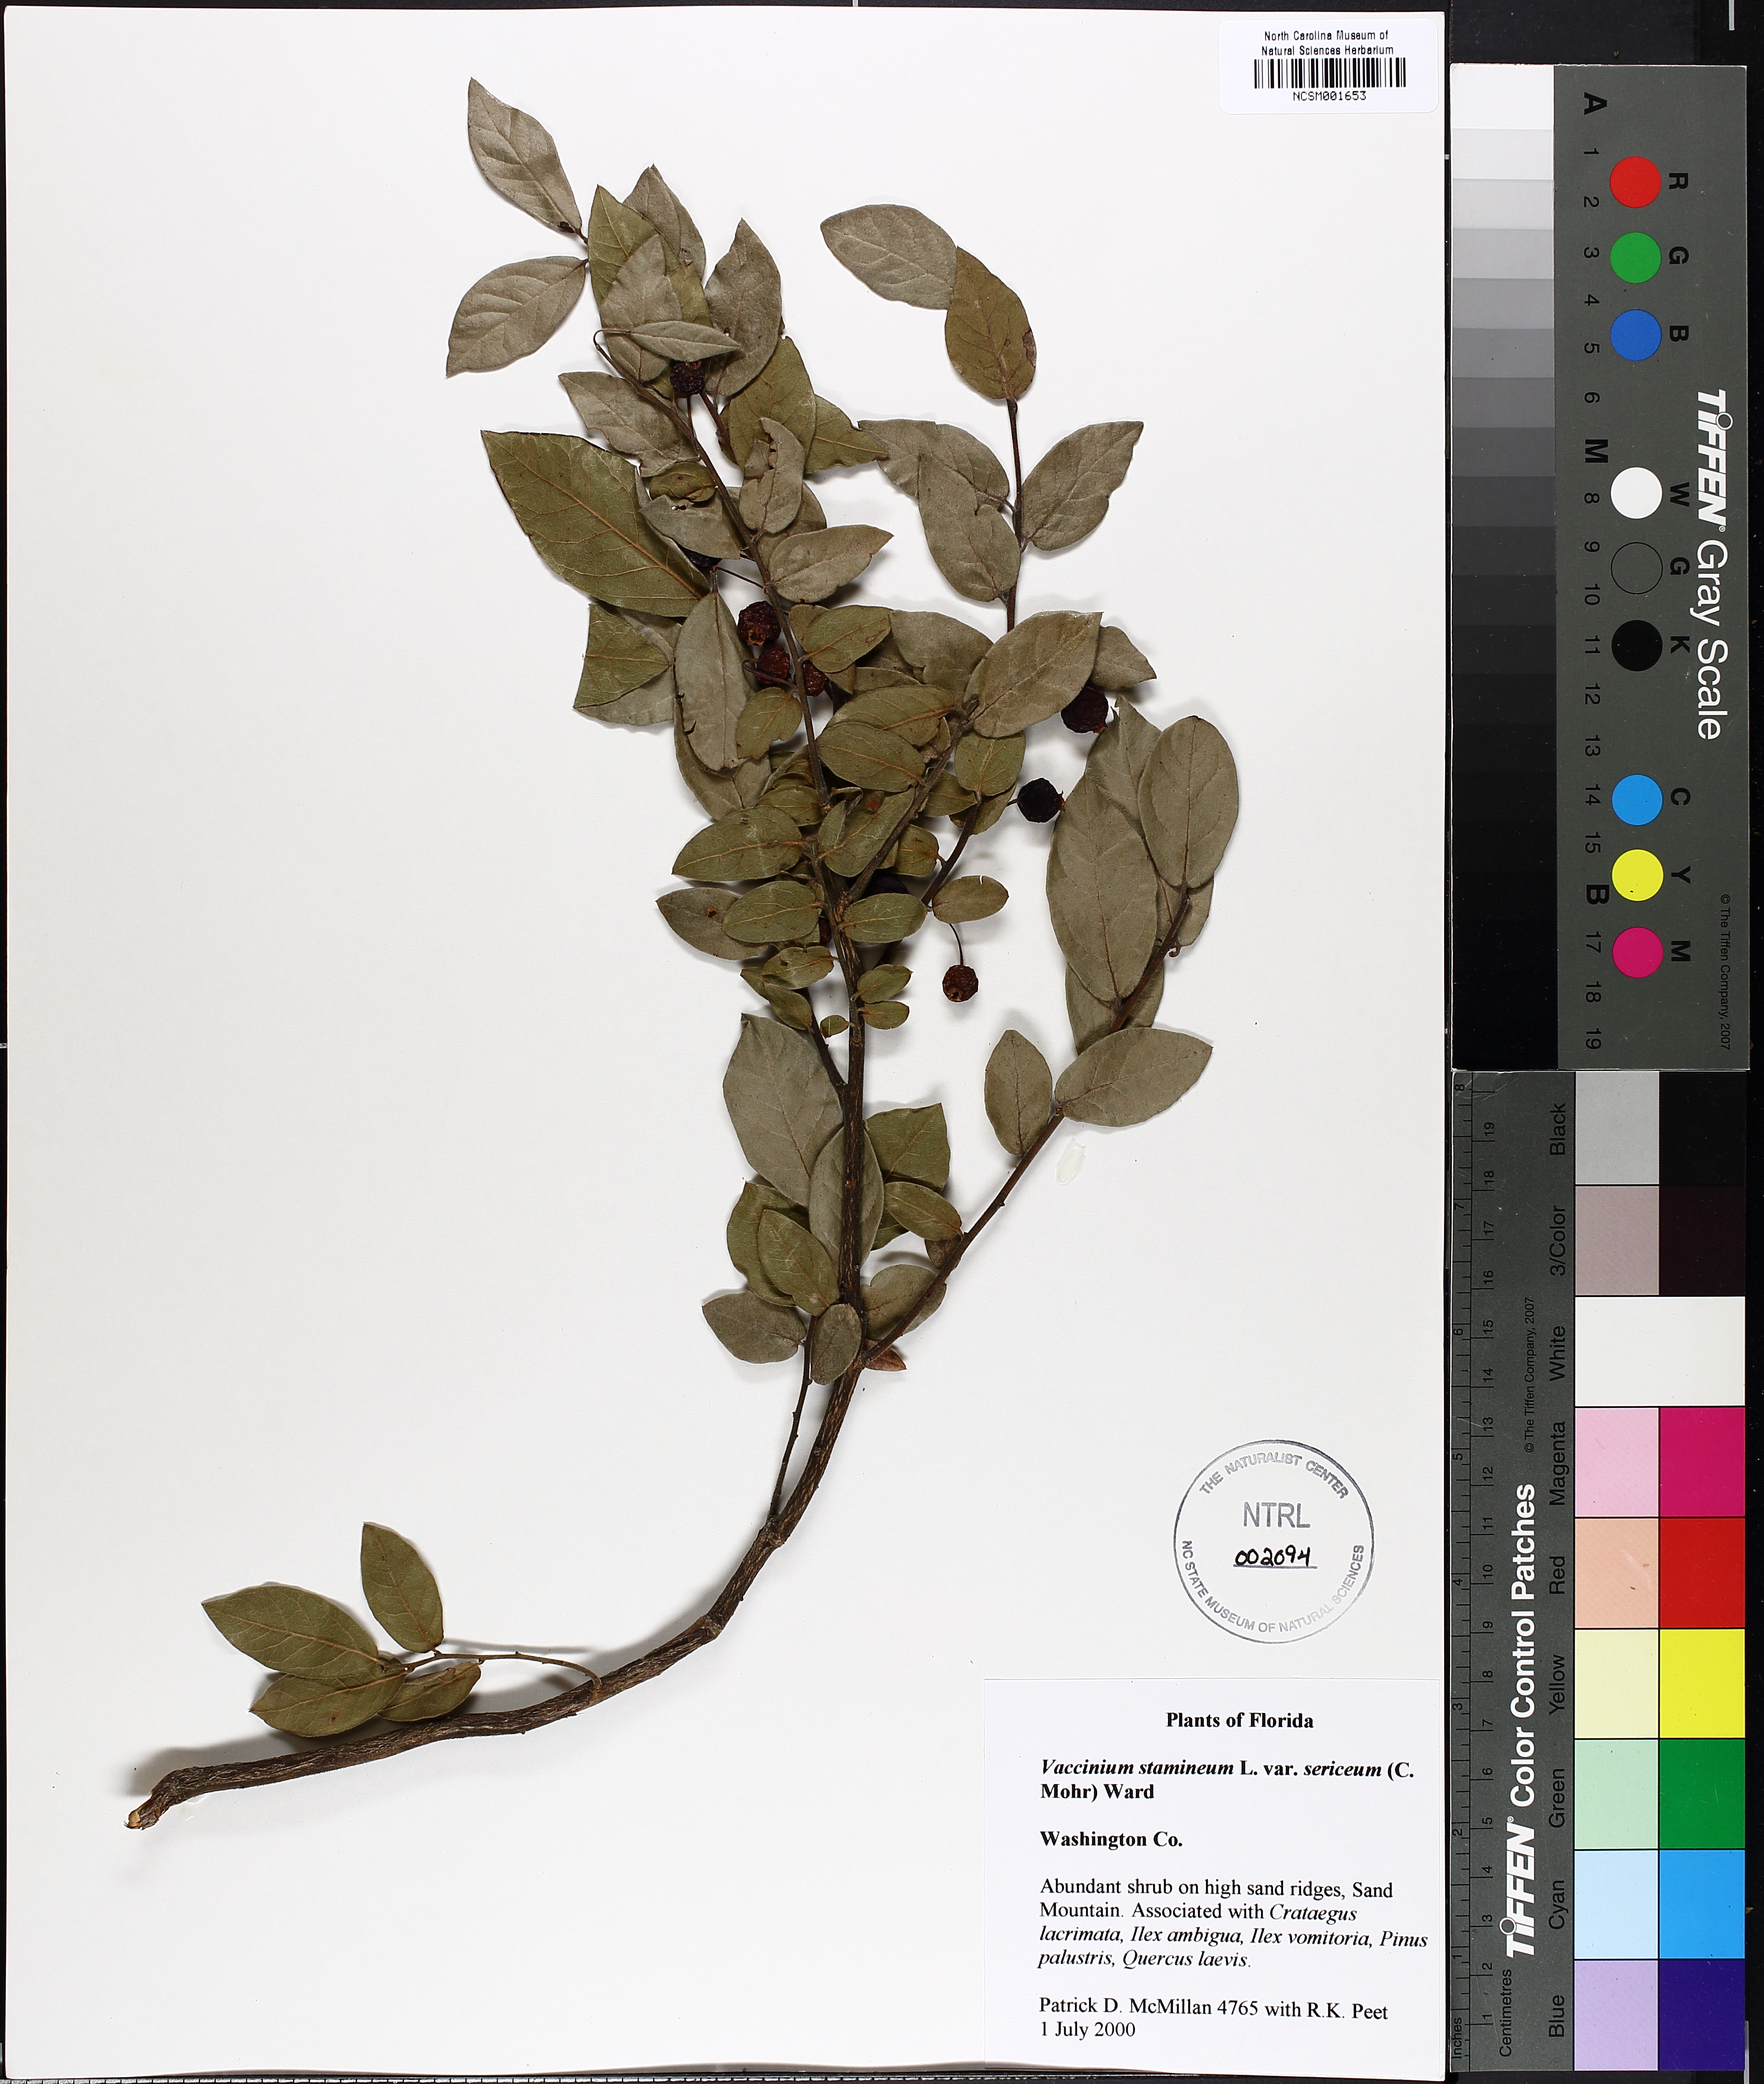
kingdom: Plantae
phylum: Tracheophyta
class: Magnoliopsida
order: Ericales
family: Ericaceae
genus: Vaccinium
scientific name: Vaccinium corymbosum
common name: Blueberry
